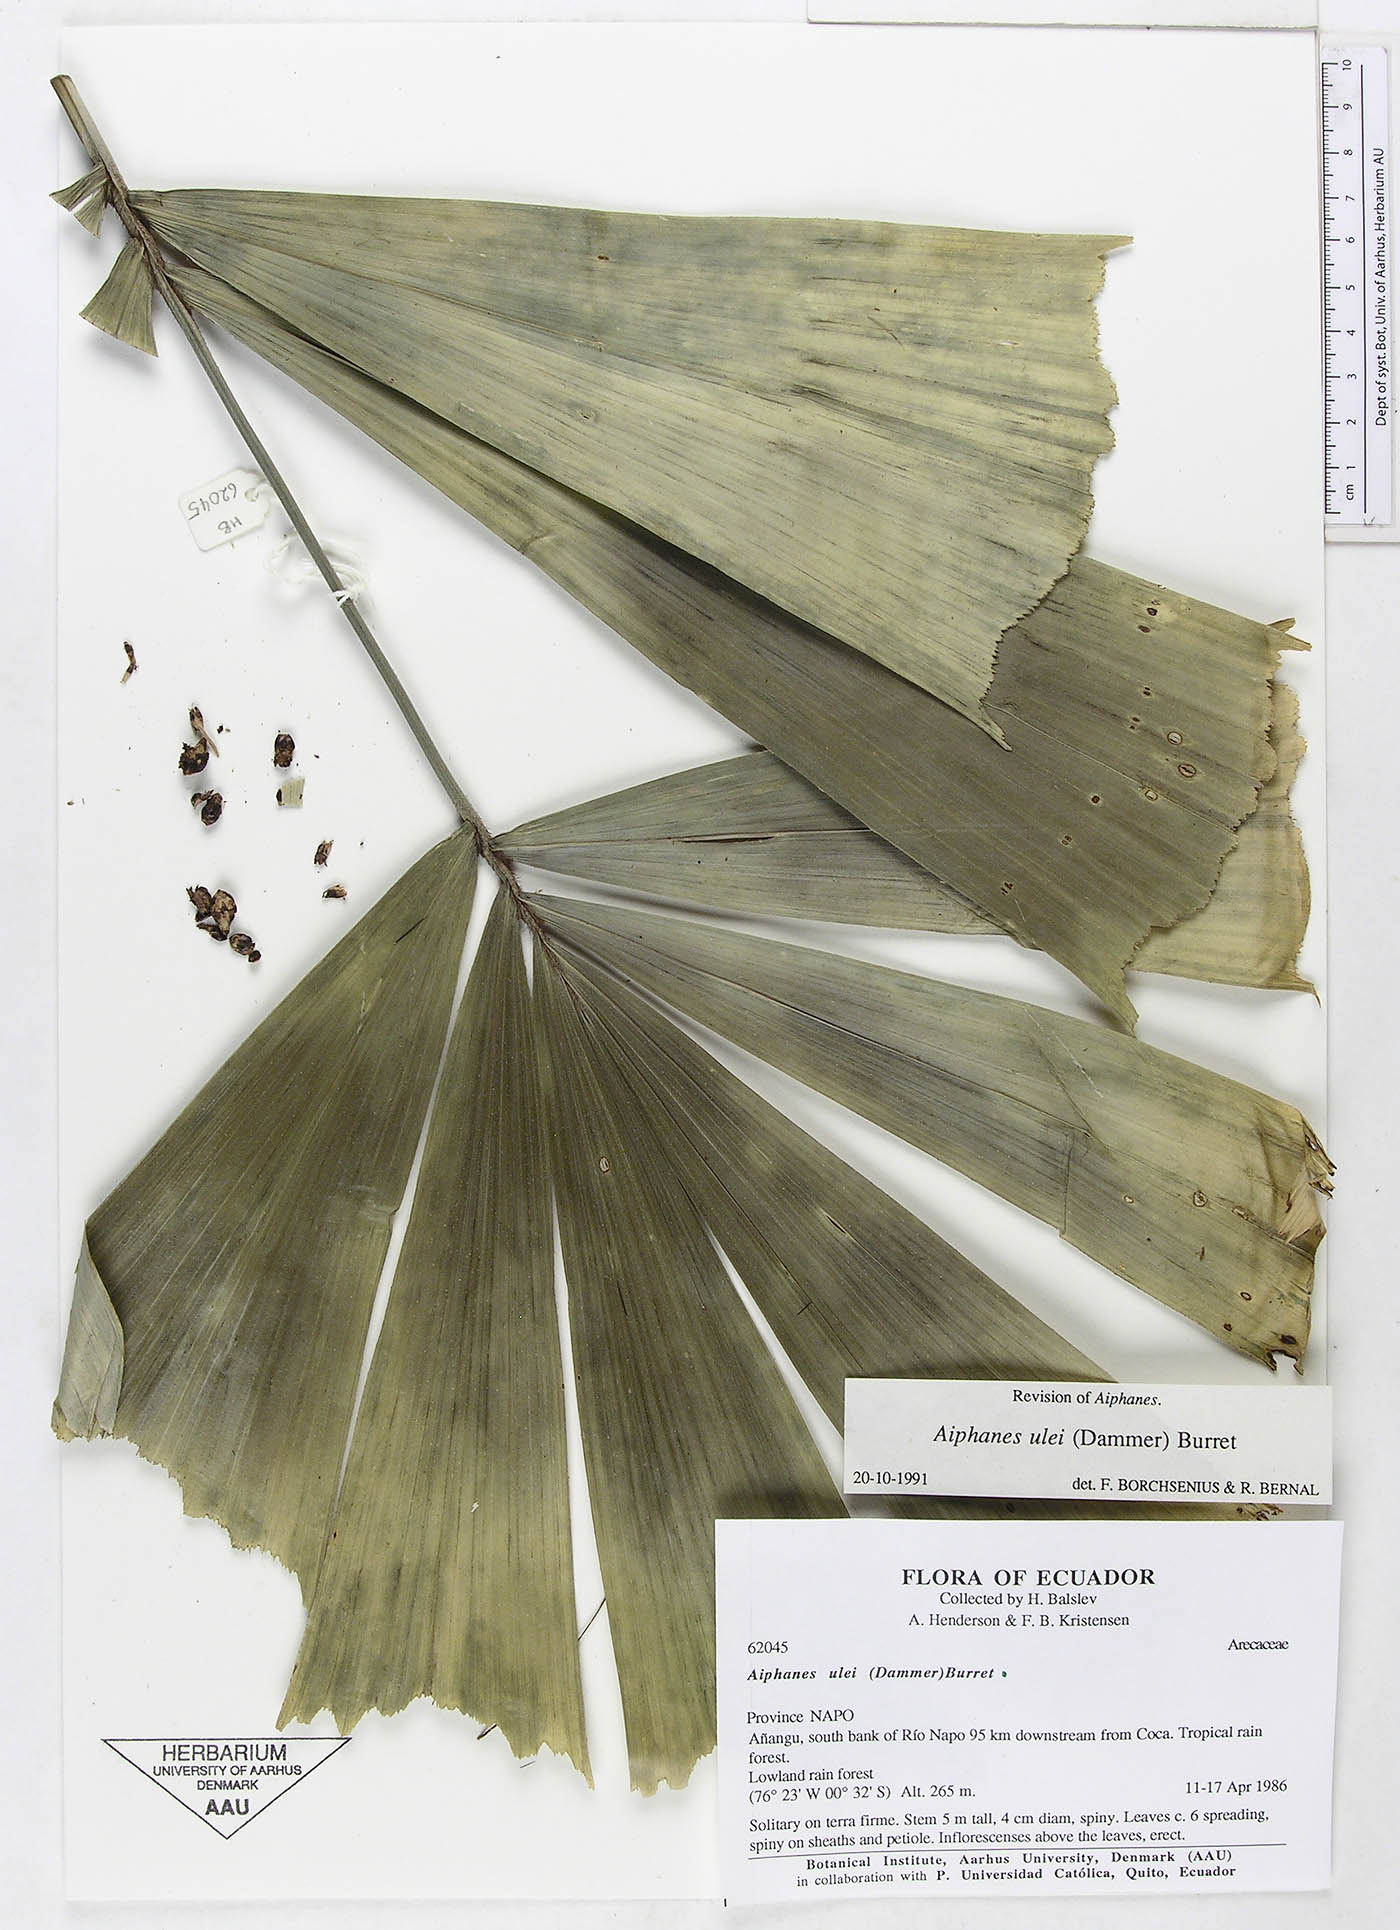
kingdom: Plantae
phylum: Tracheophyta
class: Liliopsida
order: Arecales
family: Arecaceae
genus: Aiphanes
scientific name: Aiphanes ulei
